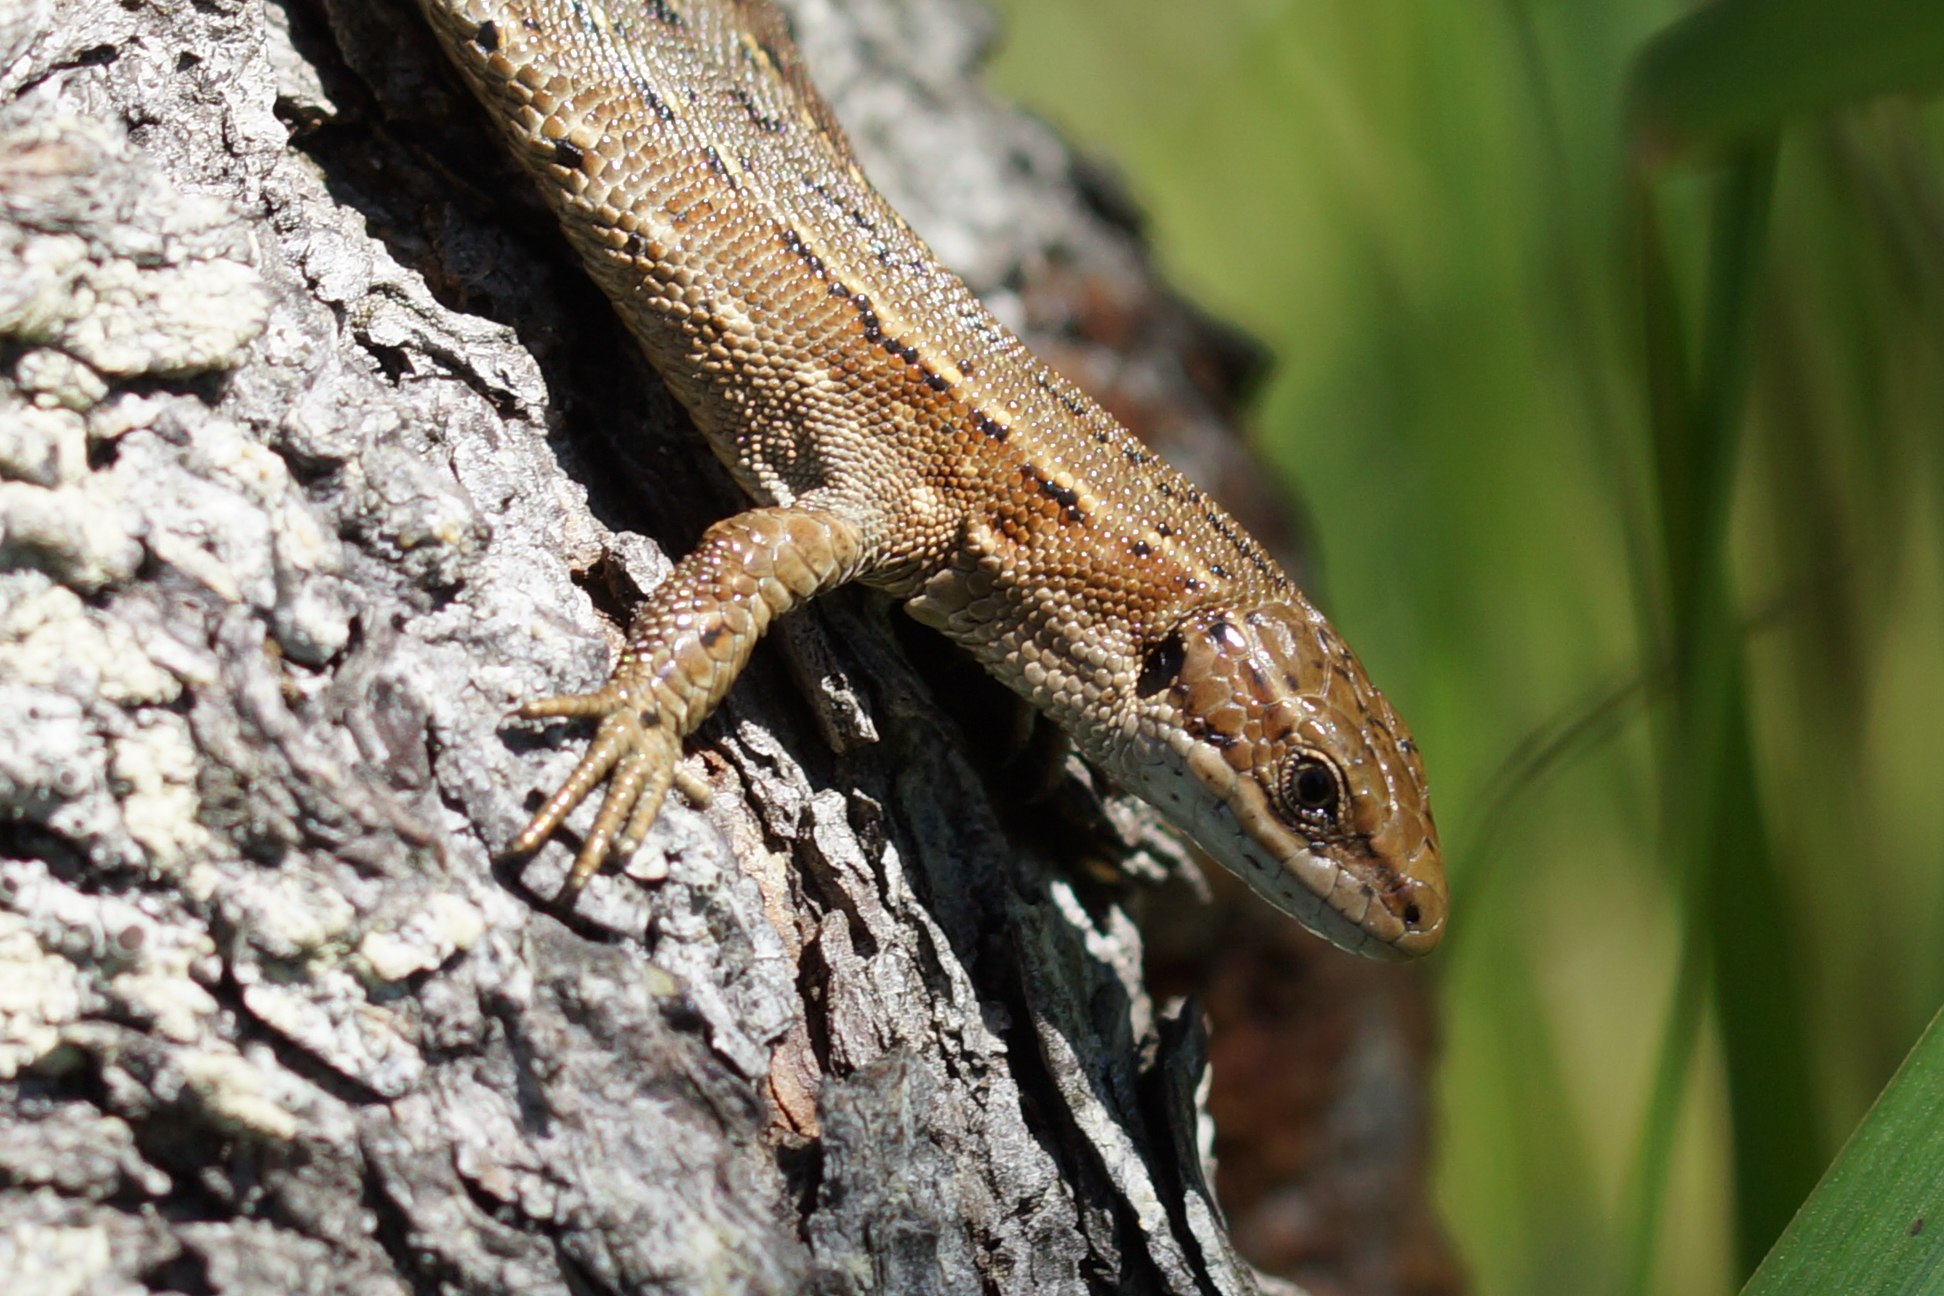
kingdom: Animalia
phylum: Chordata
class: Squamata
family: Lacertidae
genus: Zootoca
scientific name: Zootoca vivipara
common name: Skovfirben
